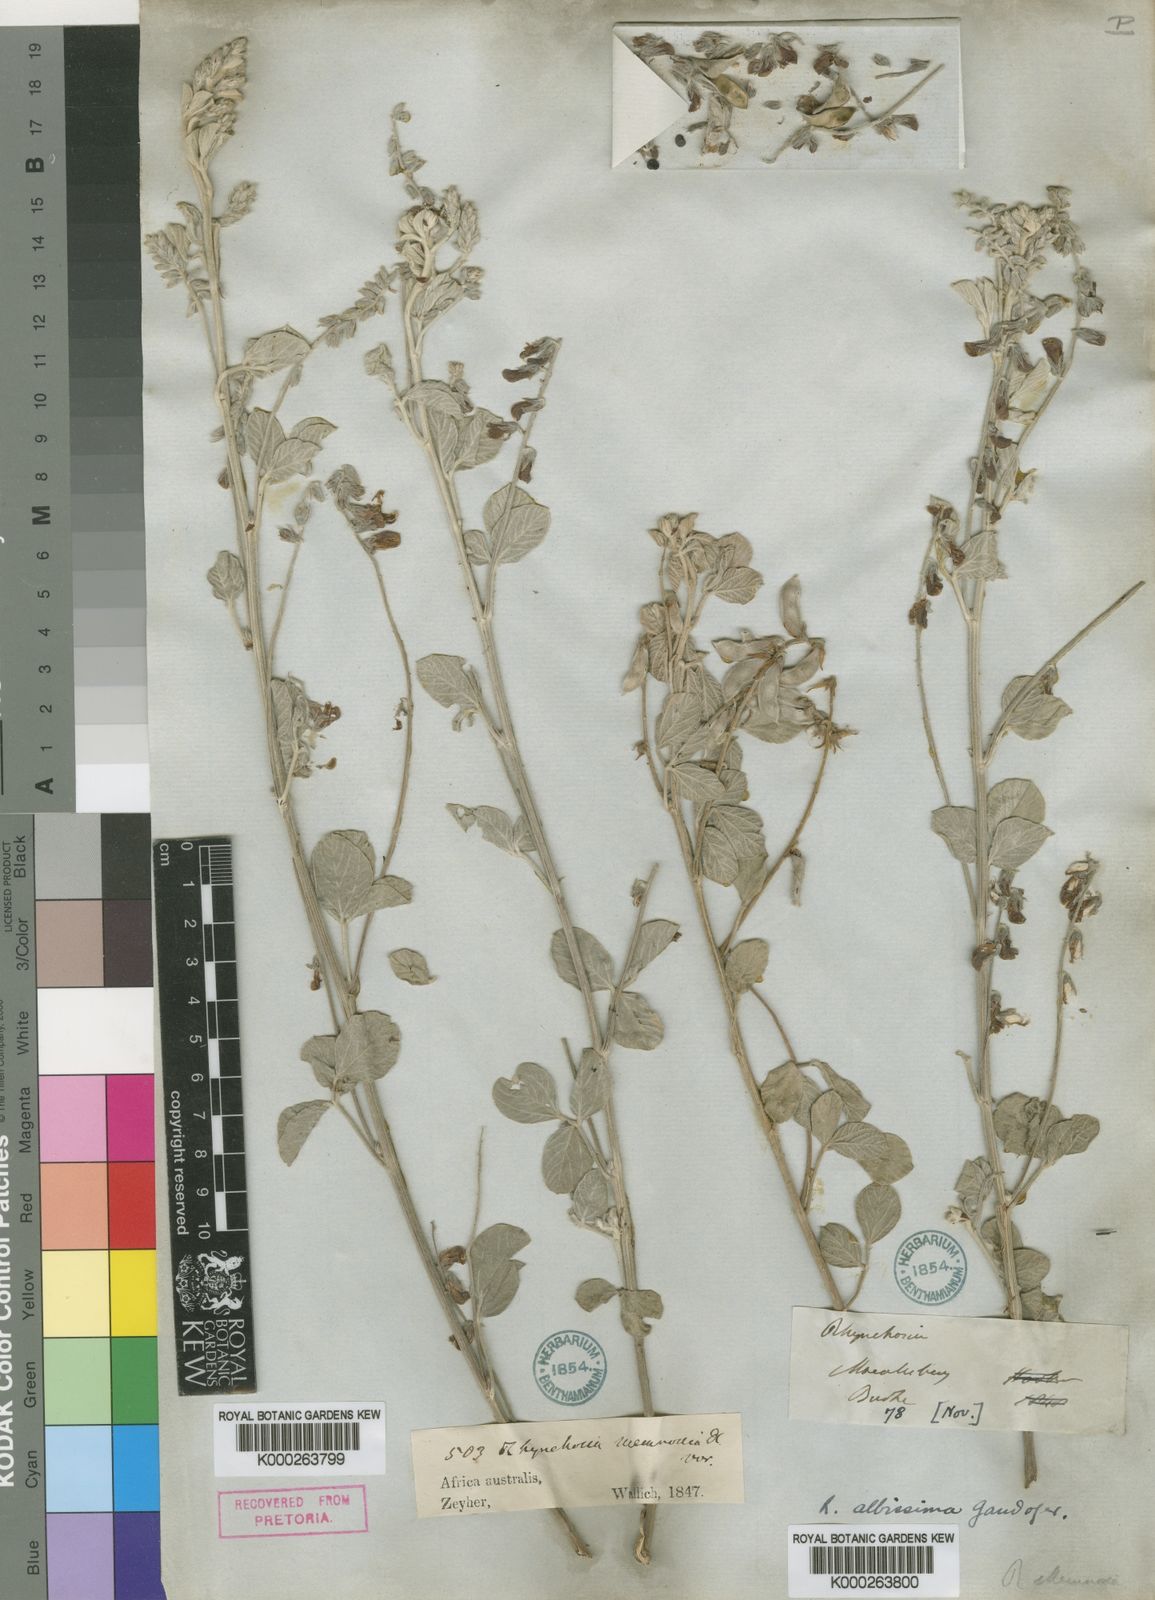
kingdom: Plantae
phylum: Tracheophyta
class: Magnoliopsida
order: Fabales
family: Fabaceae
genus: Rhynchosia
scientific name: Rhynchosia albissima
